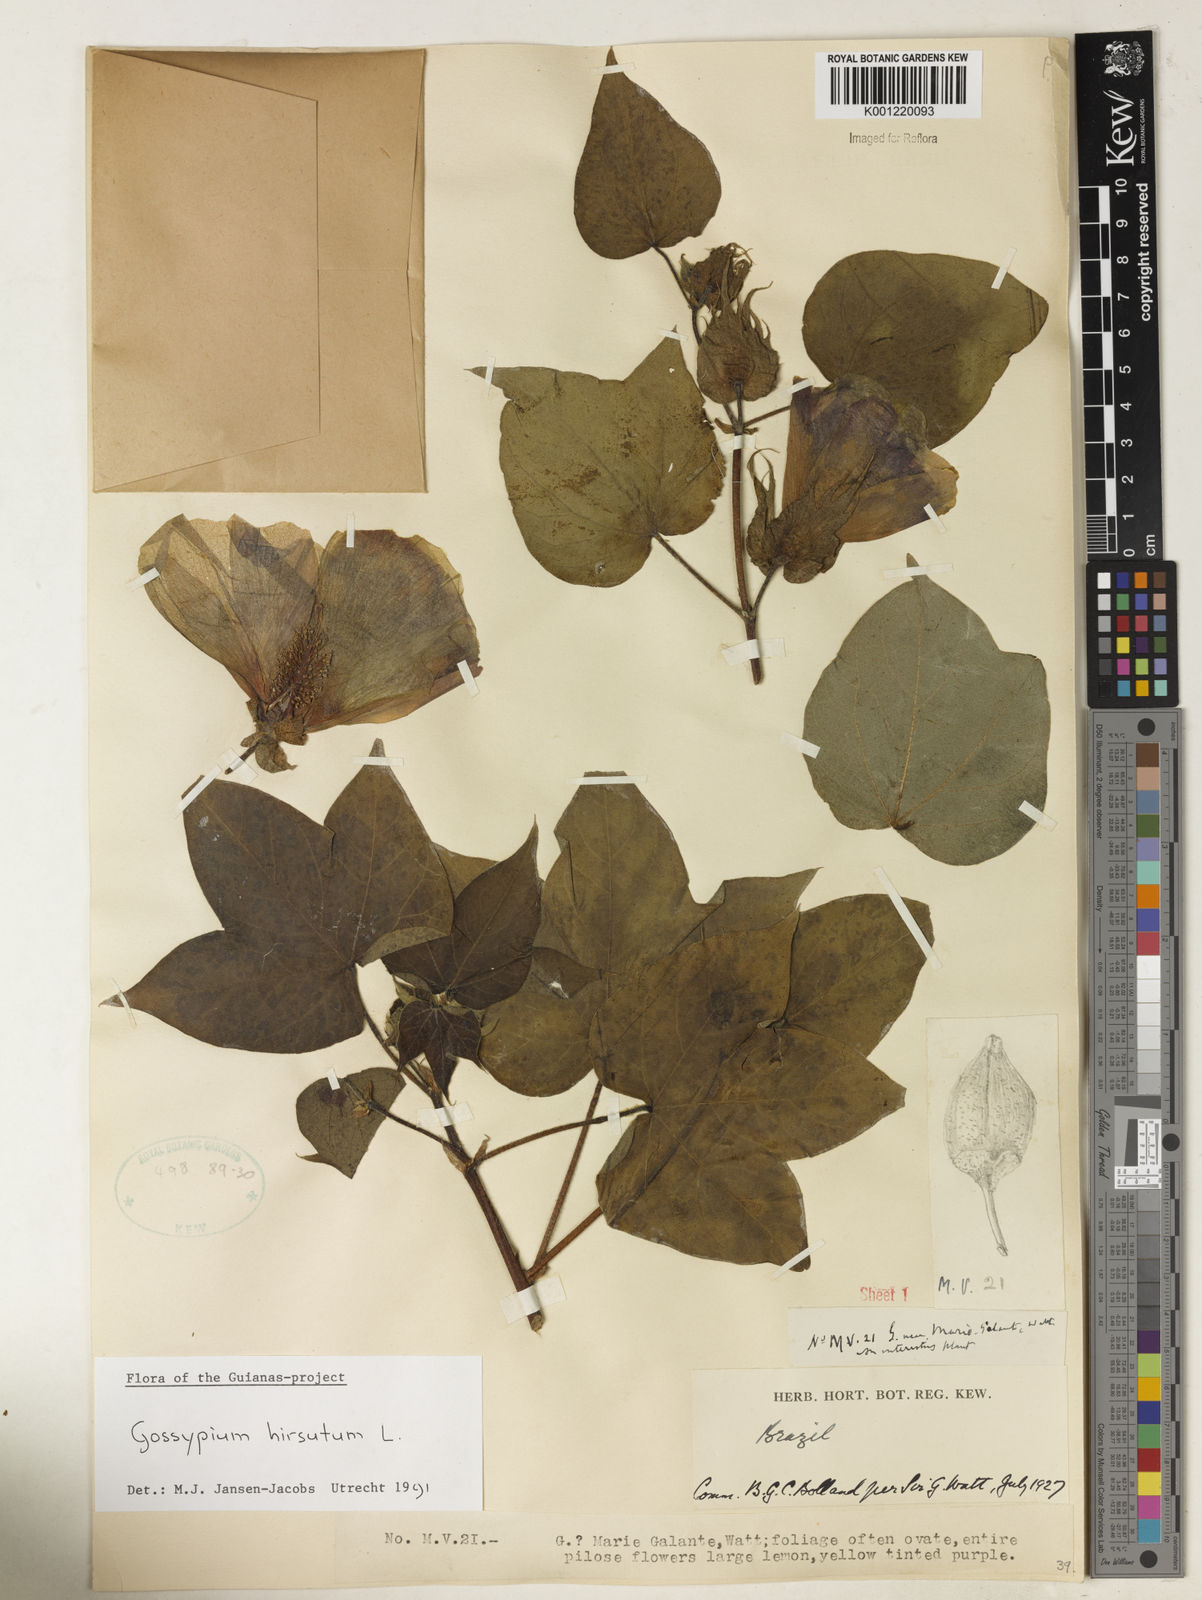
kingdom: Plantae
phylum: Tracheophyta
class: Magnoliopsida
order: Malvales
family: Malvaceae
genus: Gossypium
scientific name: Gossypium hirsutum
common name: Cotton
